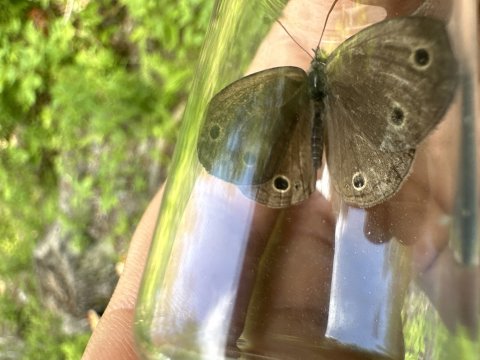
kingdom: Animalia
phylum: Arthropoda
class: Insecta
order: Lepidoptera
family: Nymphalidae
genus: Euptychia
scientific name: Euptychia cymela
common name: Little Wood Satyr
